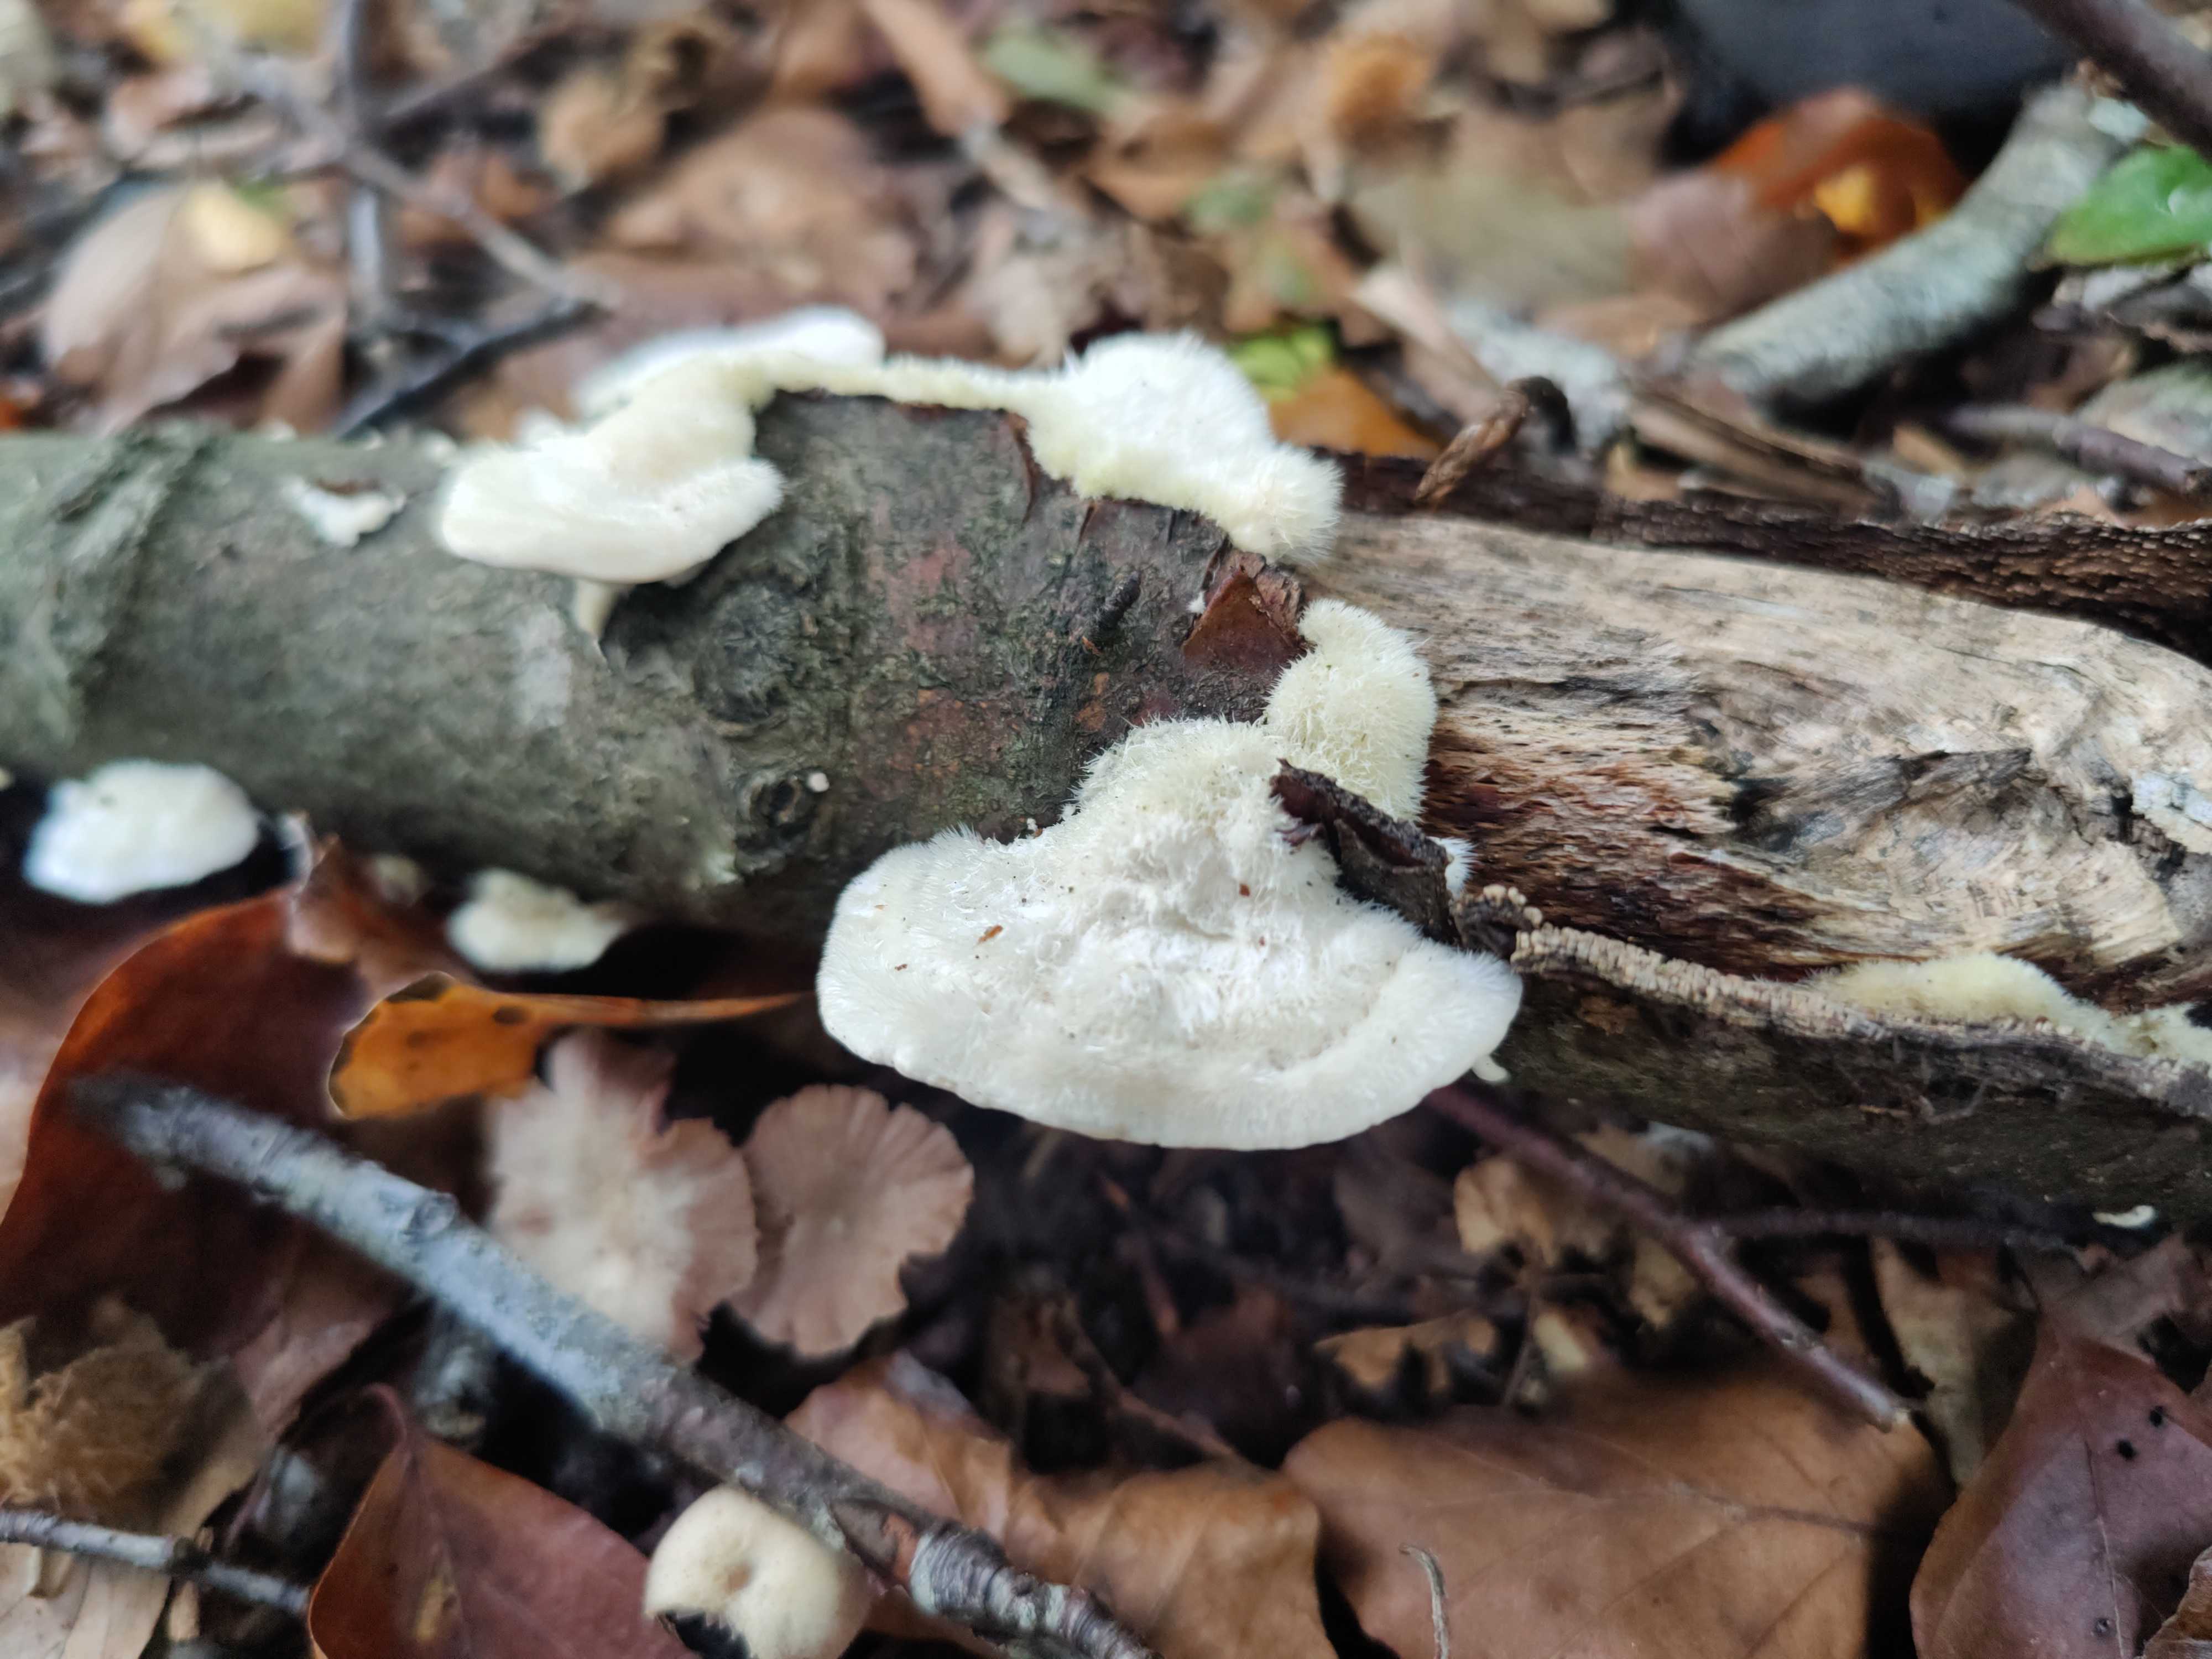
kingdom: Fungi
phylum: Basidiomycota
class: Agaricomycetes
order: Polyporales
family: Polyporaceae
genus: Trametes
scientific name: Trametes hirsuta
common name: håret læderporesvamp
